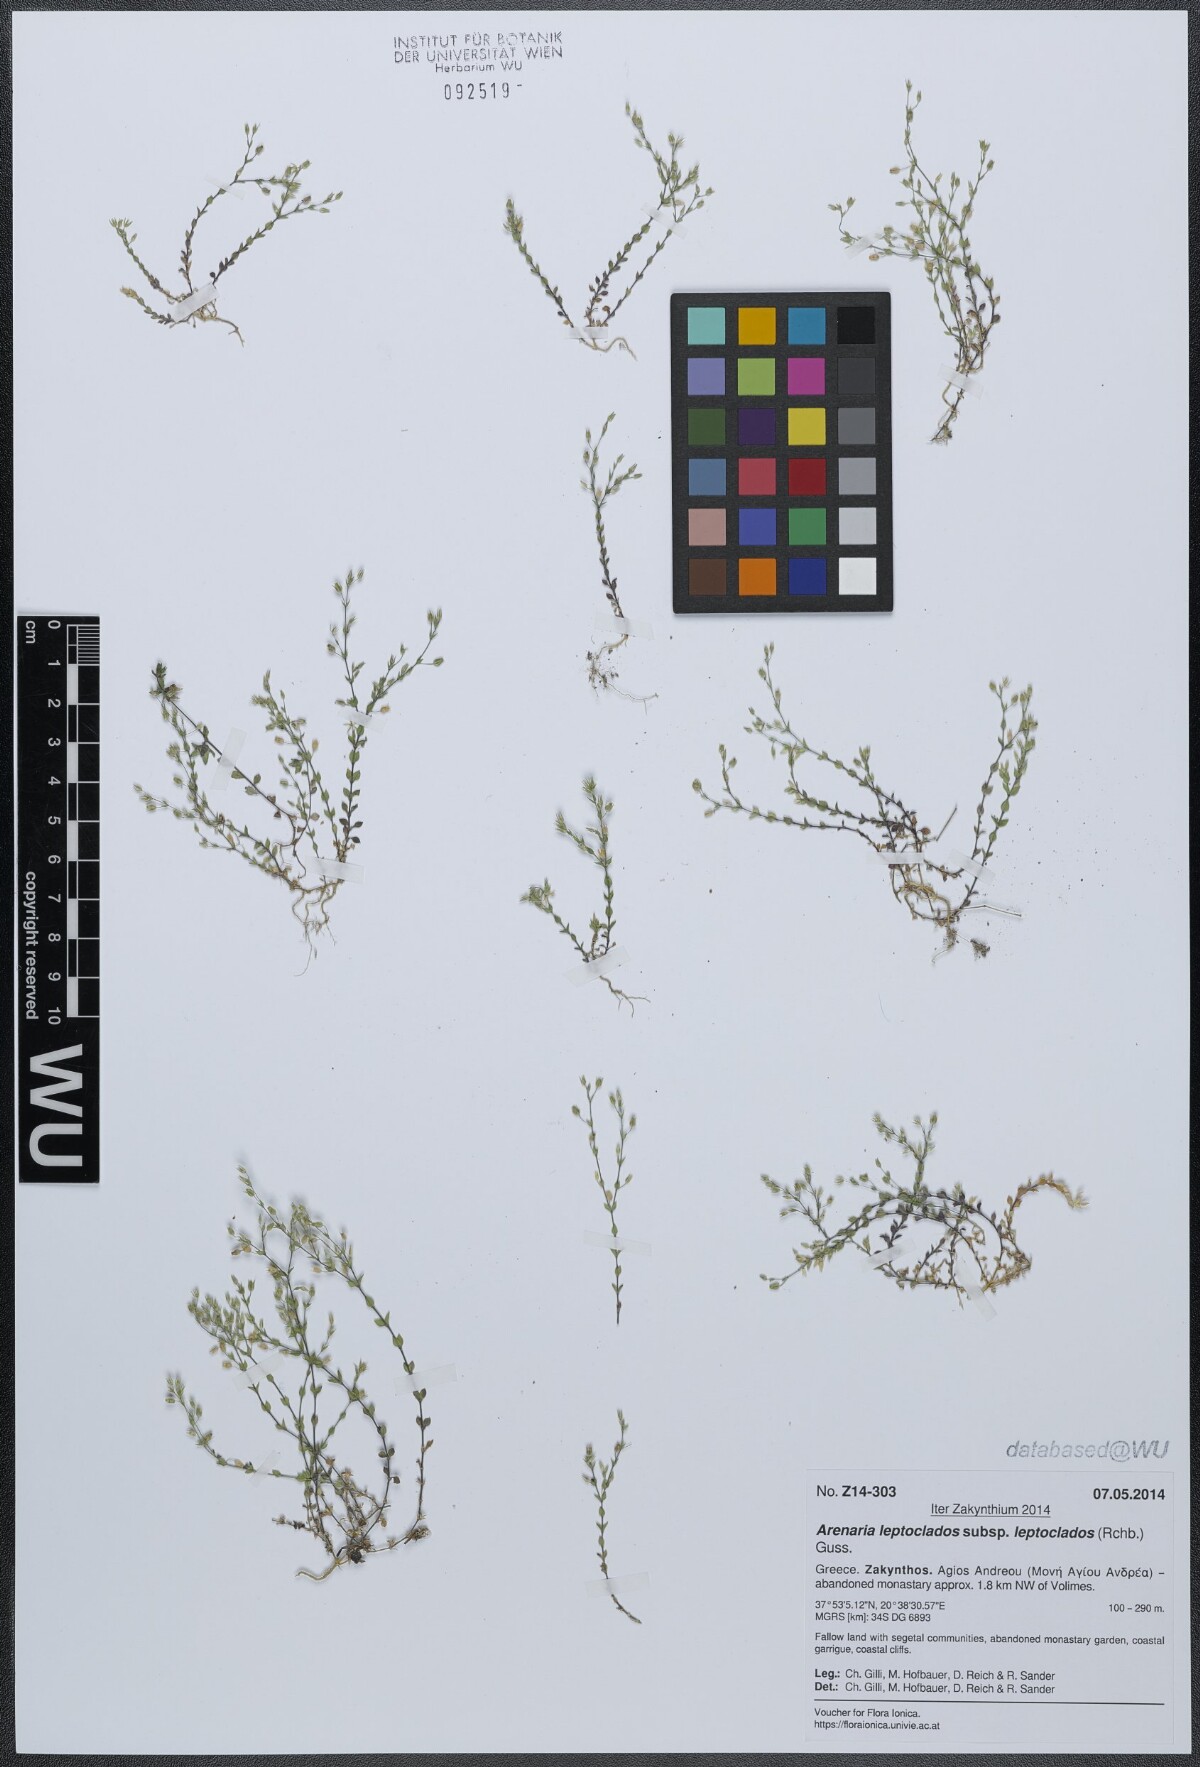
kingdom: Plantae
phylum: Tracheophyta
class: Magnoliopsida
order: Caryophyllales
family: Caryophyllaceae
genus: Arenaria
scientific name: Arenaria leptoclados
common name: Thyme-leaved sandwort
